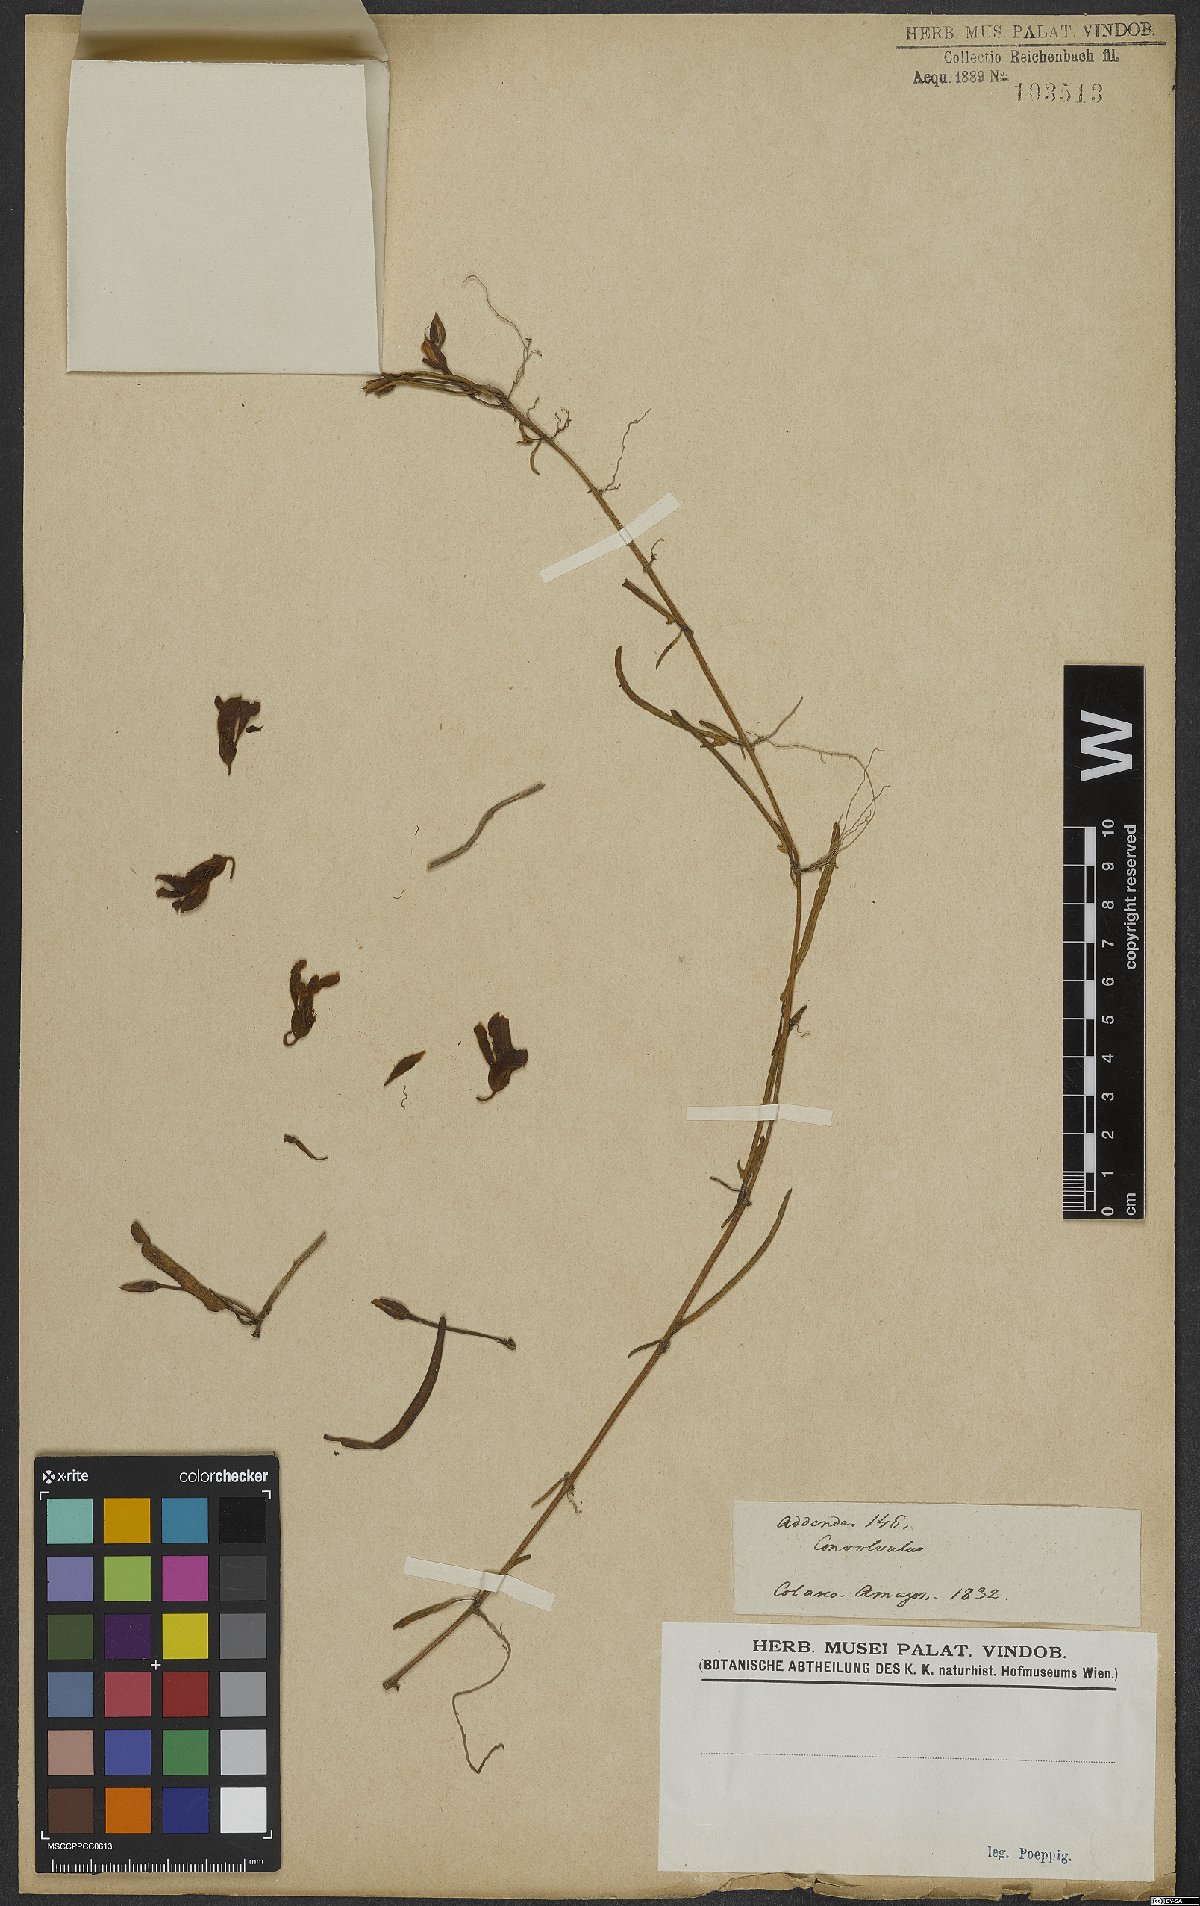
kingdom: Plantae
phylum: Tracheophyta
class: Magnoliopsida
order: Solanales
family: Convolvulaceae
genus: Ipomoea
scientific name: Ipomoea imperati
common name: Fiddle-leaf morning-glory
